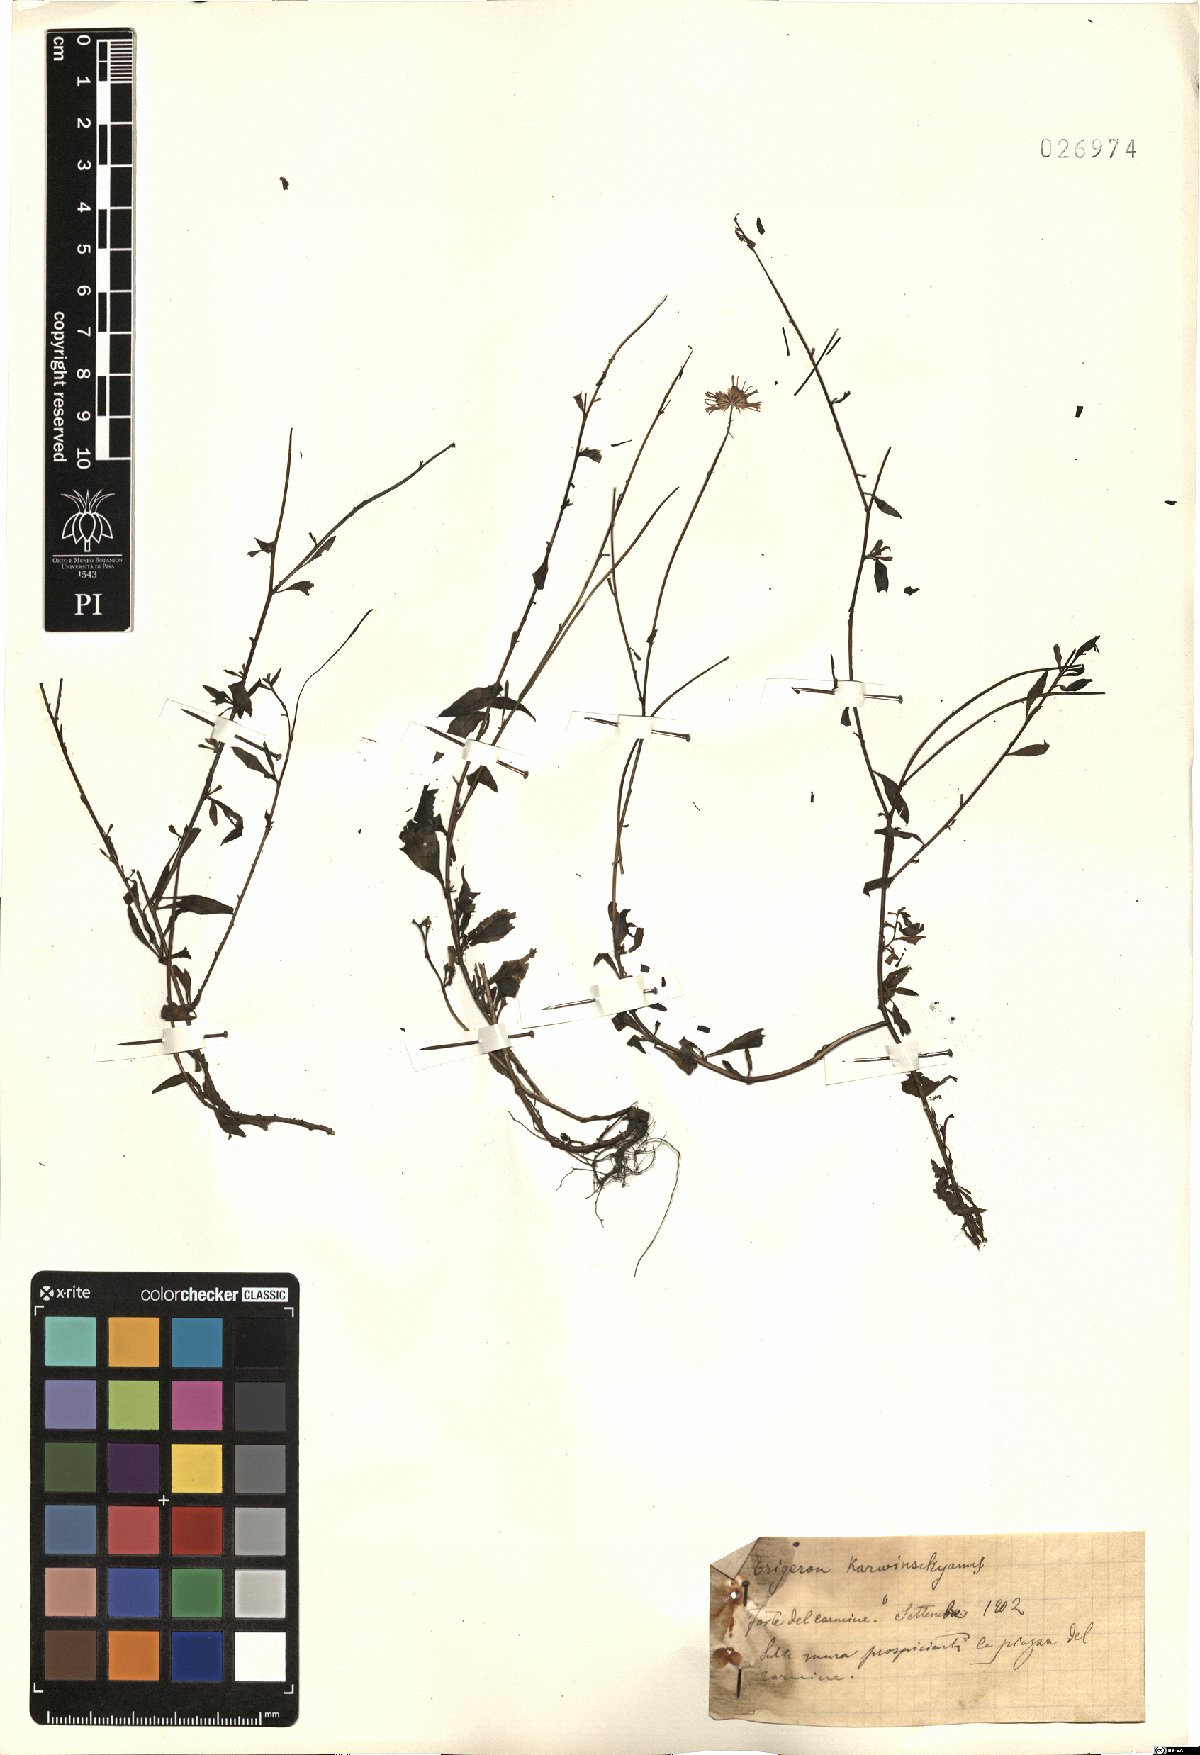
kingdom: Plantae
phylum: Tracheophyta
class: Magnoliopsida
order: Asterales
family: Asteraceae
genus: Erigeron
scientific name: Erigeron karvinskianus
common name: Mexican fleabane
